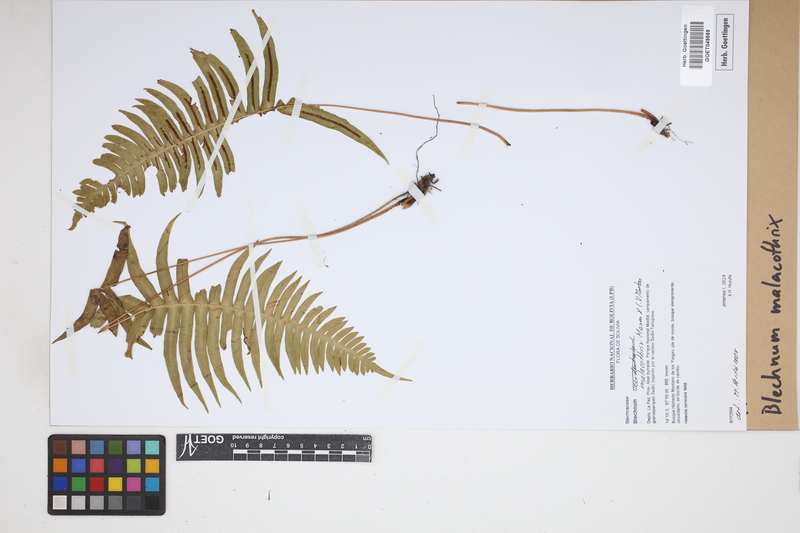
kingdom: Plantae
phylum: Tracheophyta
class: Polypodiopsida
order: Polypodiales
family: Blechnaceae
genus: Blechnum
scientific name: Blechnum malacothrix
